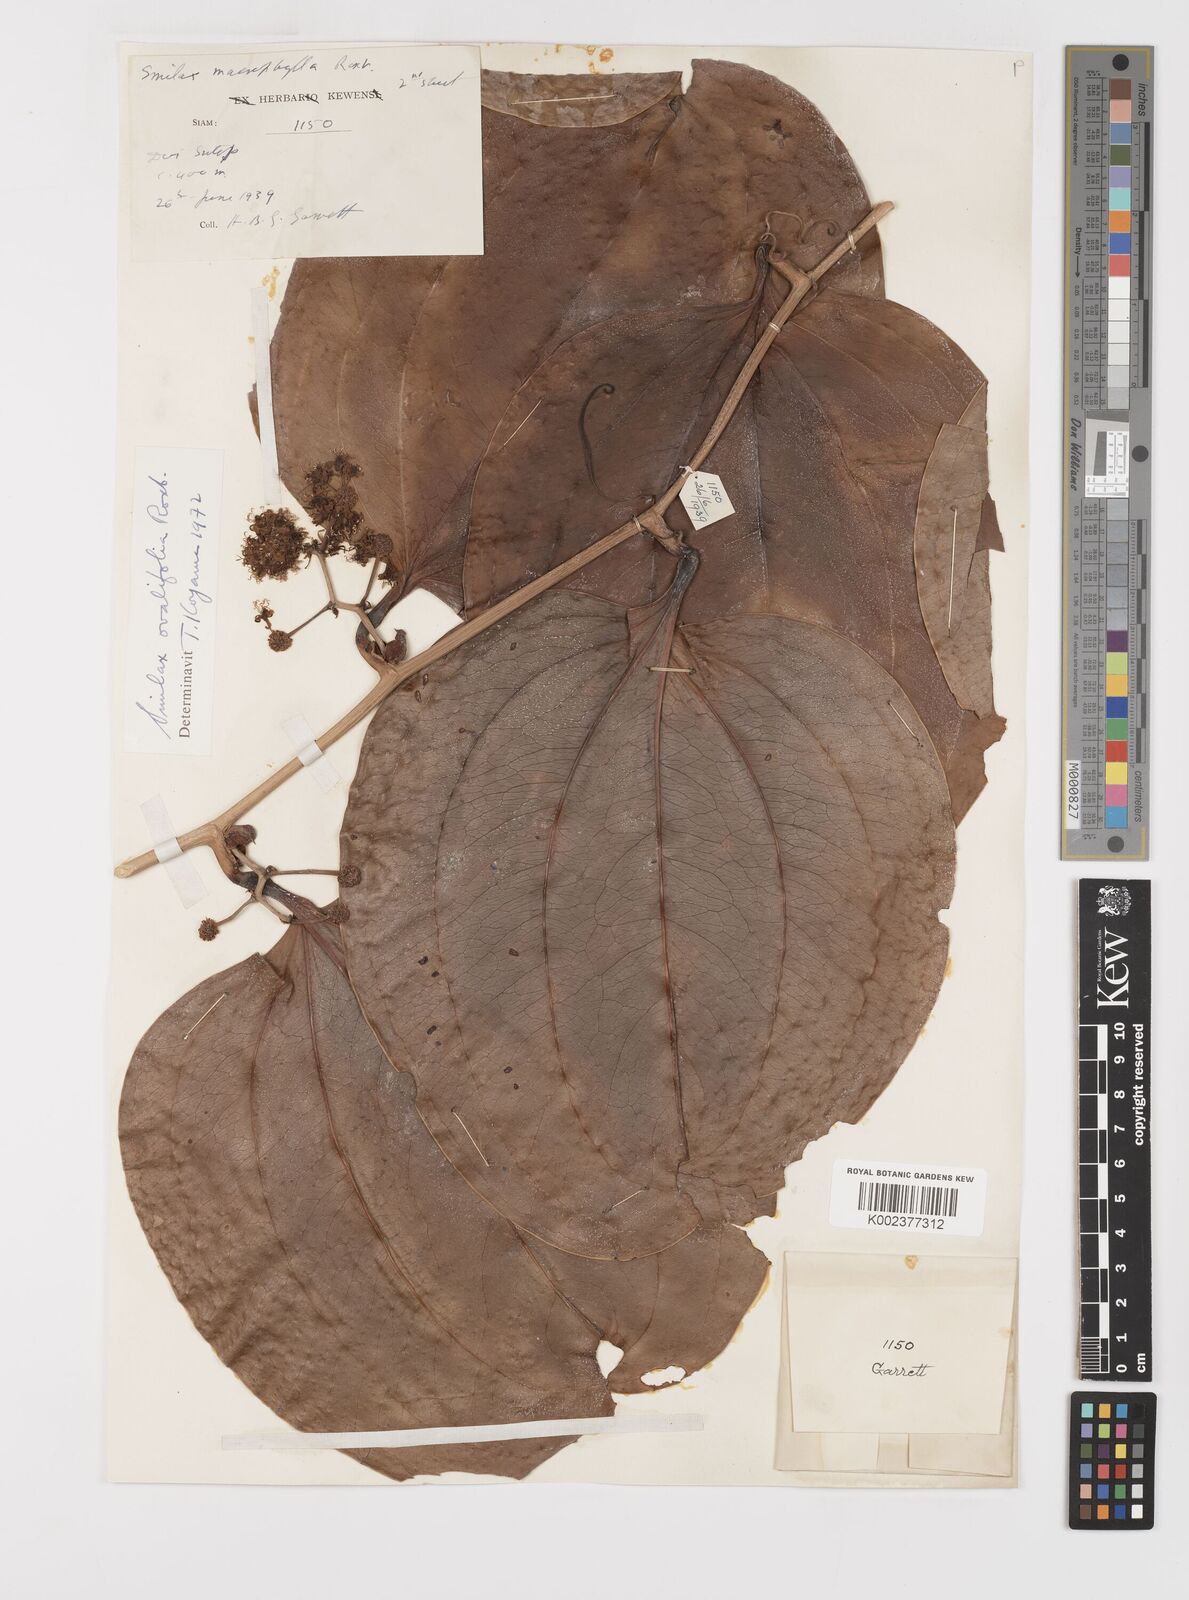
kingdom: Plantae
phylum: Tracheophyta
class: Liliopsida
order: Liliales
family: Smilacaceae
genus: Smilax
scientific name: Smilax ovalifolia
